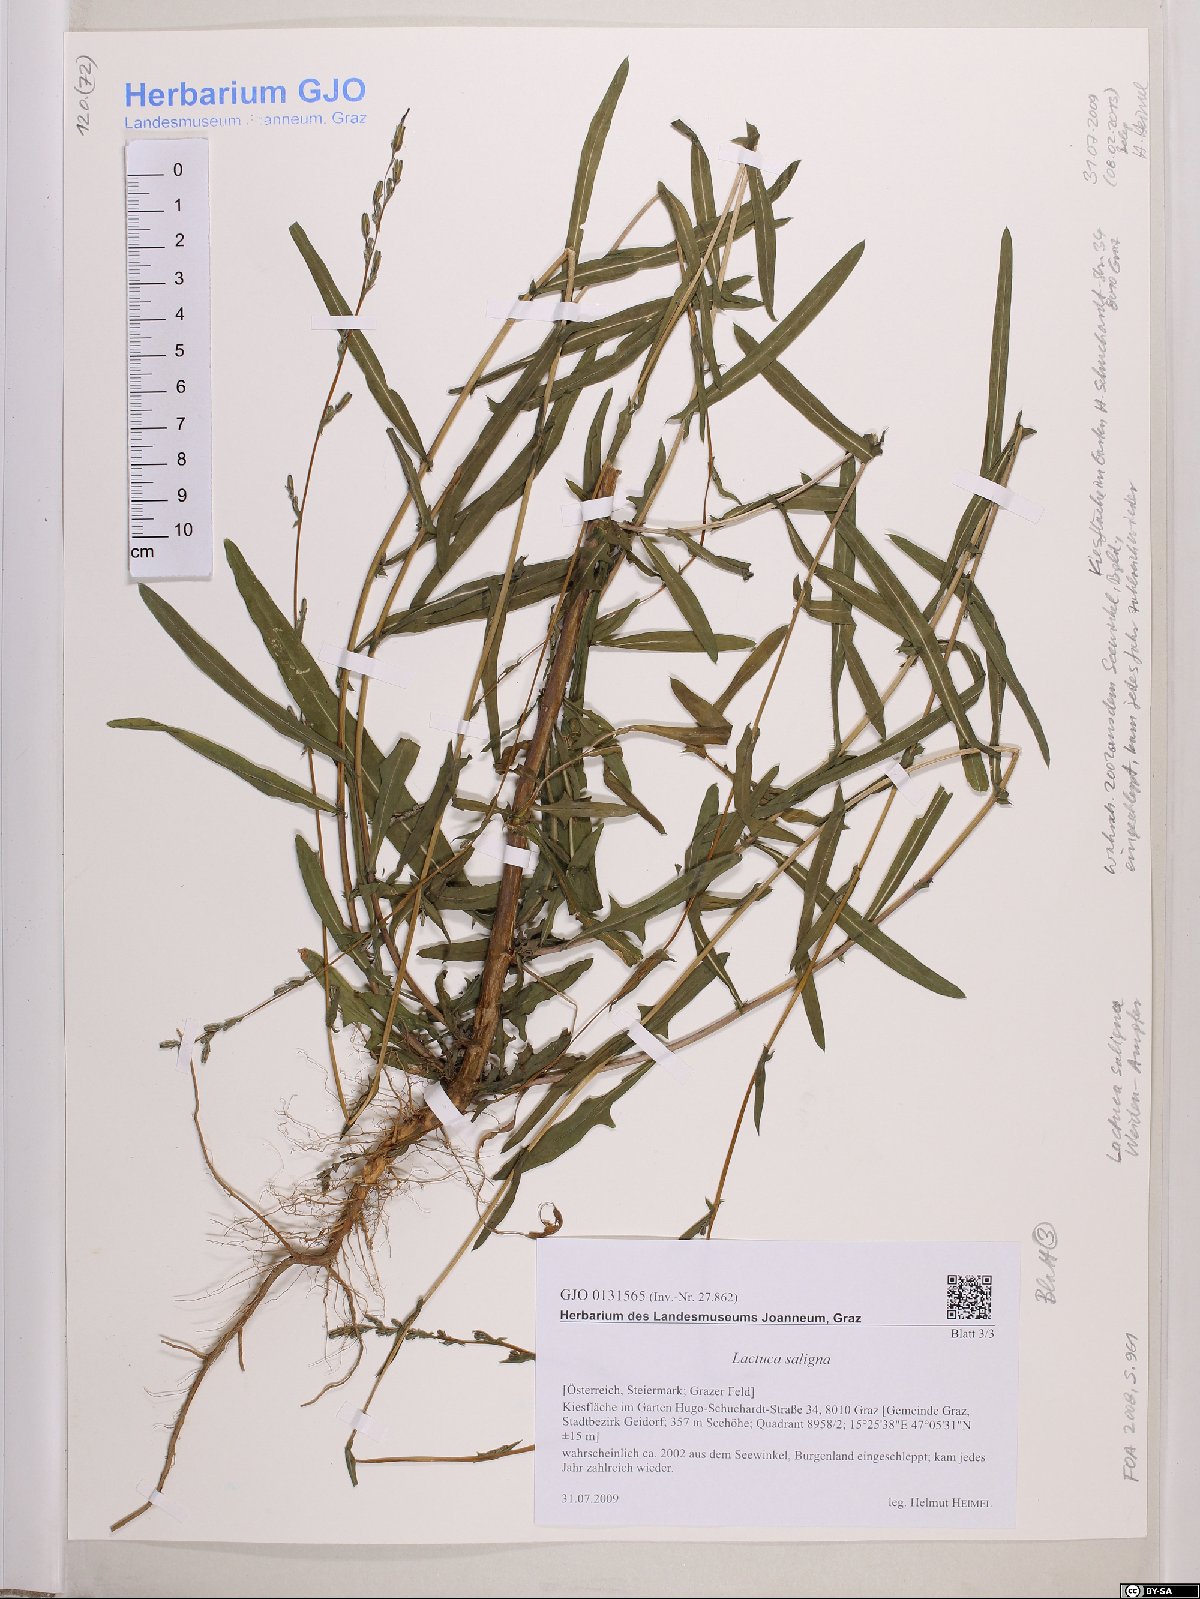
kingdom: Plantae
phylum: Tracheophyta
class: Magnoliopsida
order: Asterales
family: Asteraceae
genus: Lactuca
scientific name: Lactuca saligna
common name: Wild lettuce
